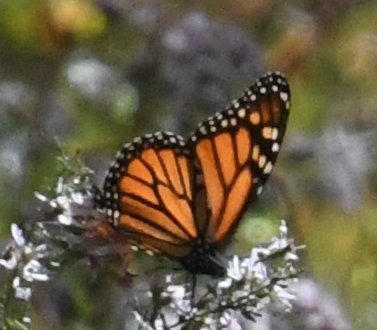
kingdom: Animalia
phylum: Arthropoda
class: Insecta
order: Lepidoptera
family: Nymphalidae
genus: Danaus
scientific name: Danaus plexippus
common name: Monarch
